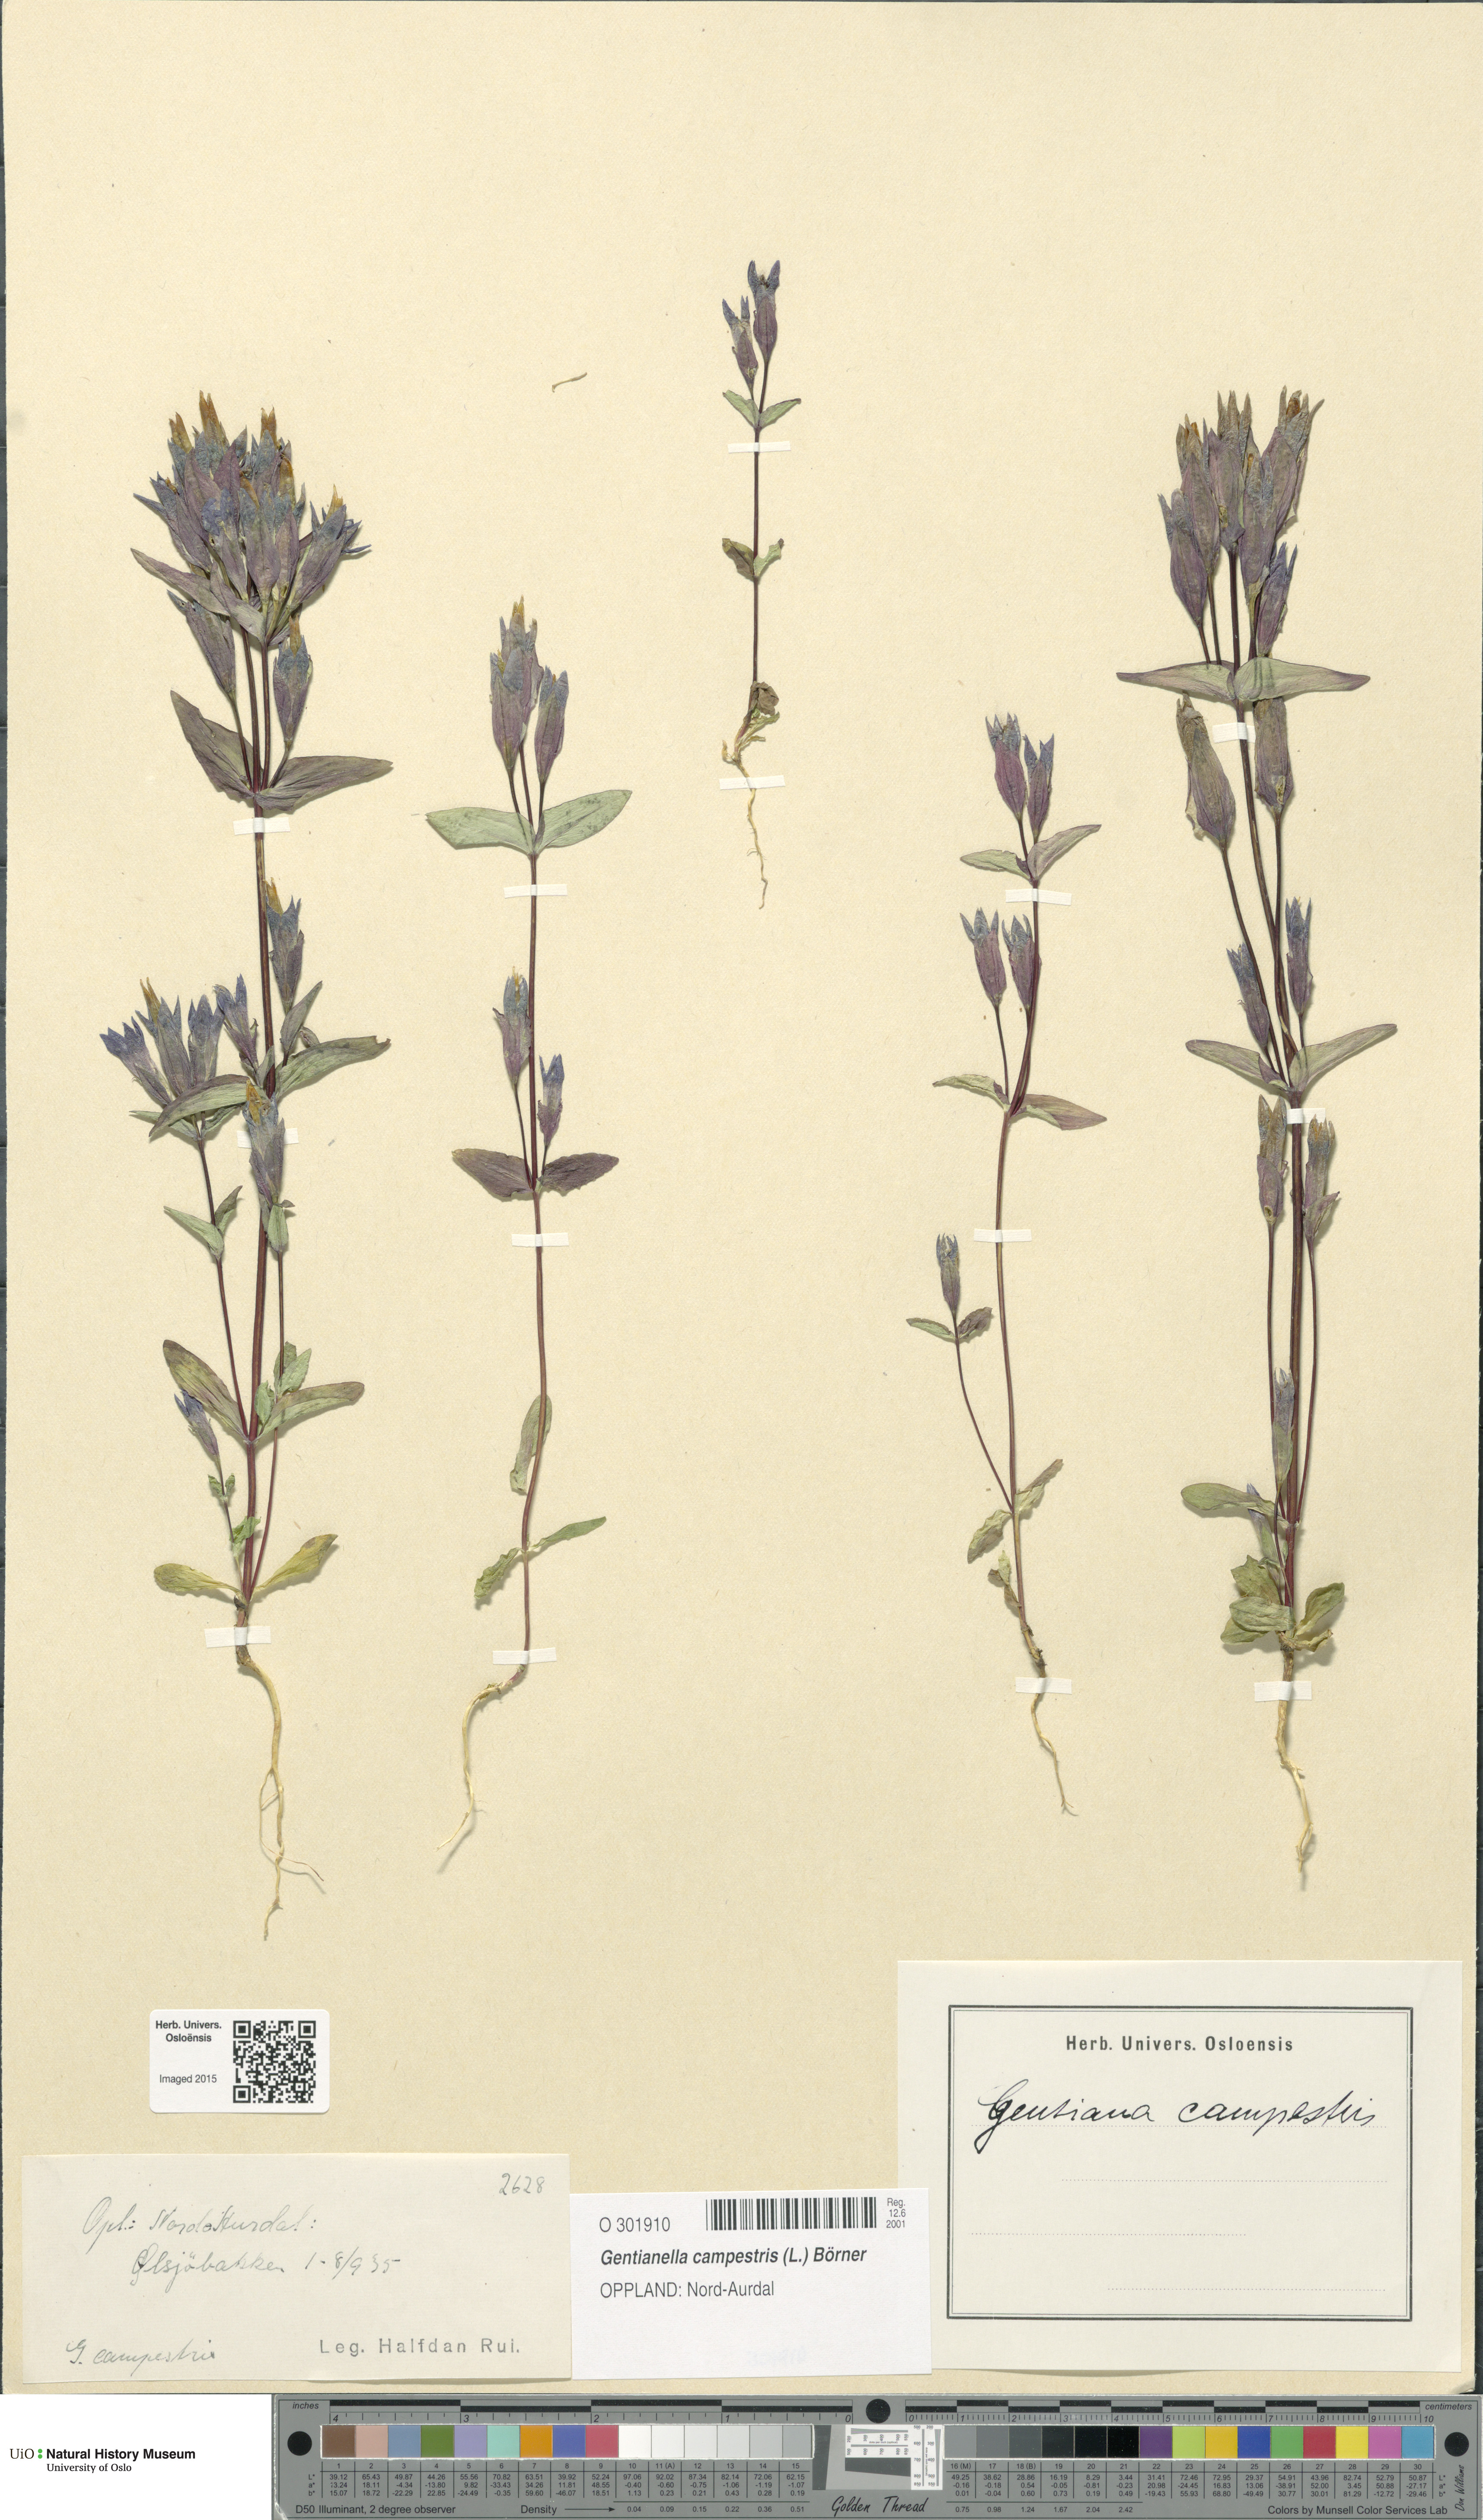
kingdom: Plantae
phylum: Tracheophyta
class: Magnoliopsida
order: Gentianales
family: Gentianaceae
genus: Gentianella
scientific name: Gentianella campestris
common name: Field gentian
